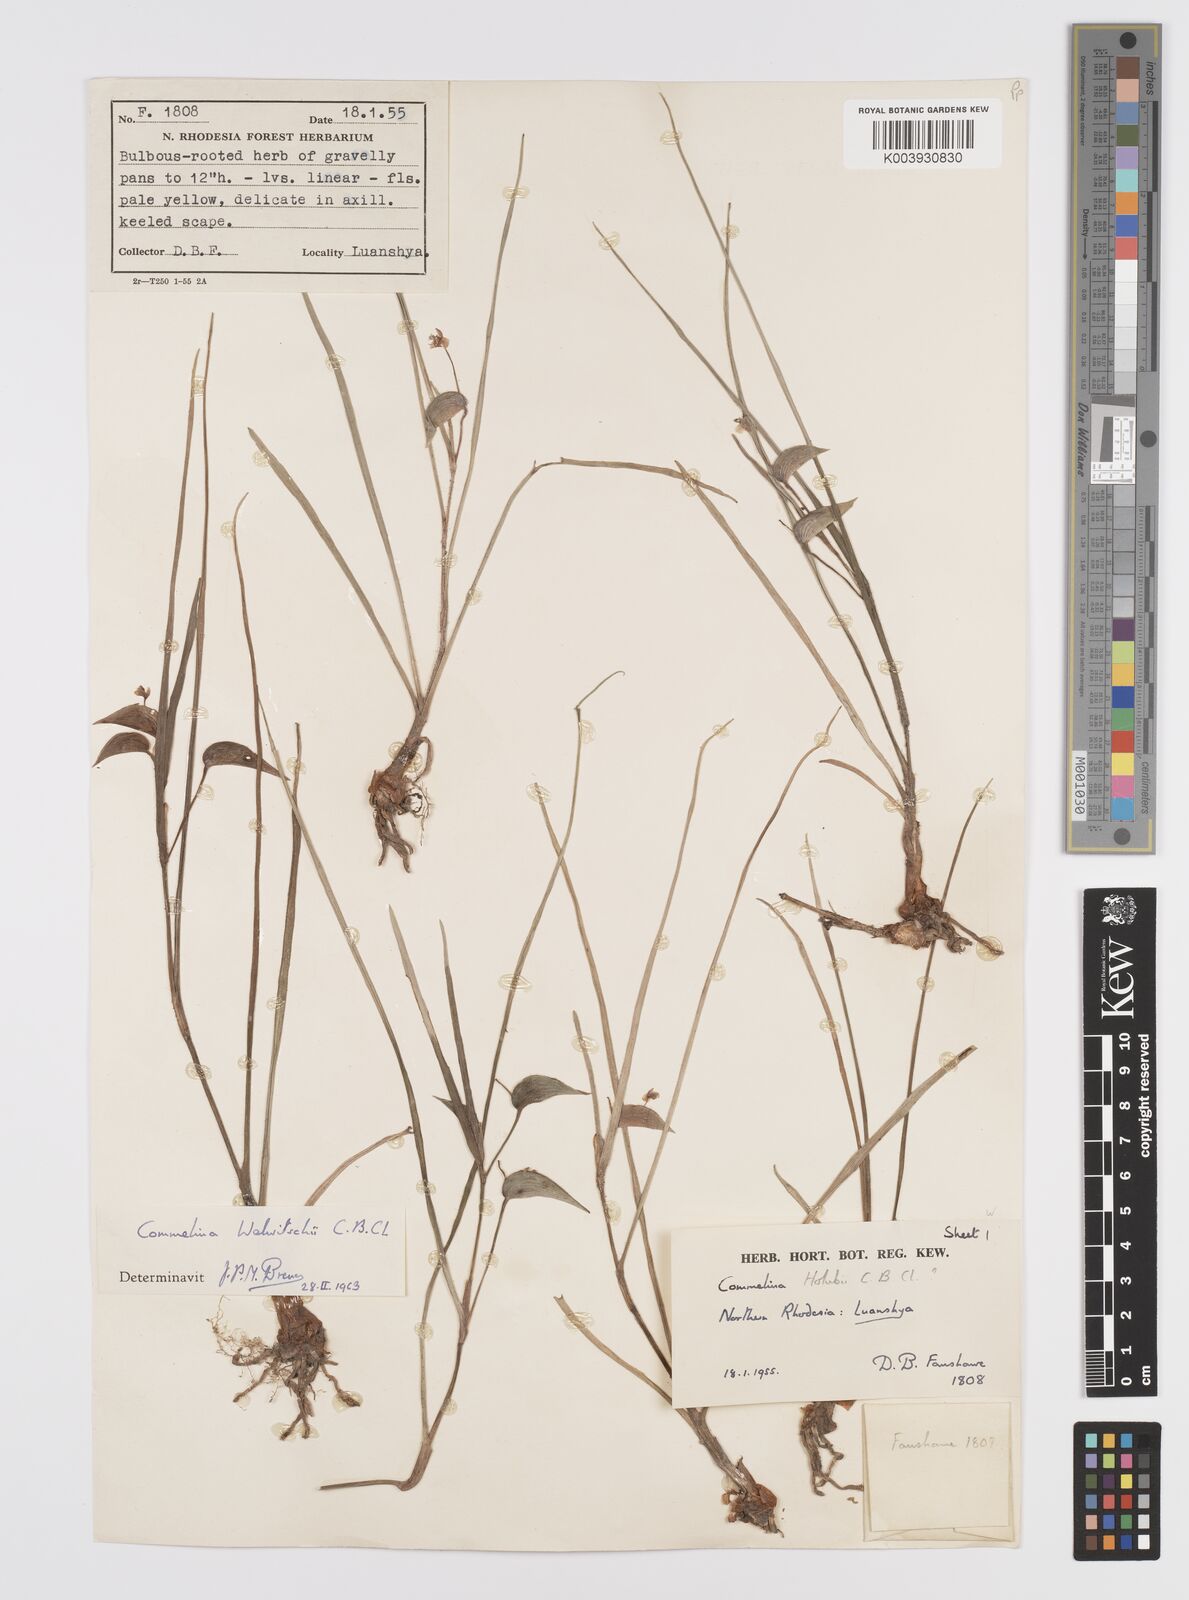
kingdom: Plantae
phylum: Tracheophyta
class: Liliopsida
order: Commelinales
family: Commelinaceae
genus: Commelina
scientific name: Commelina welwitschii
